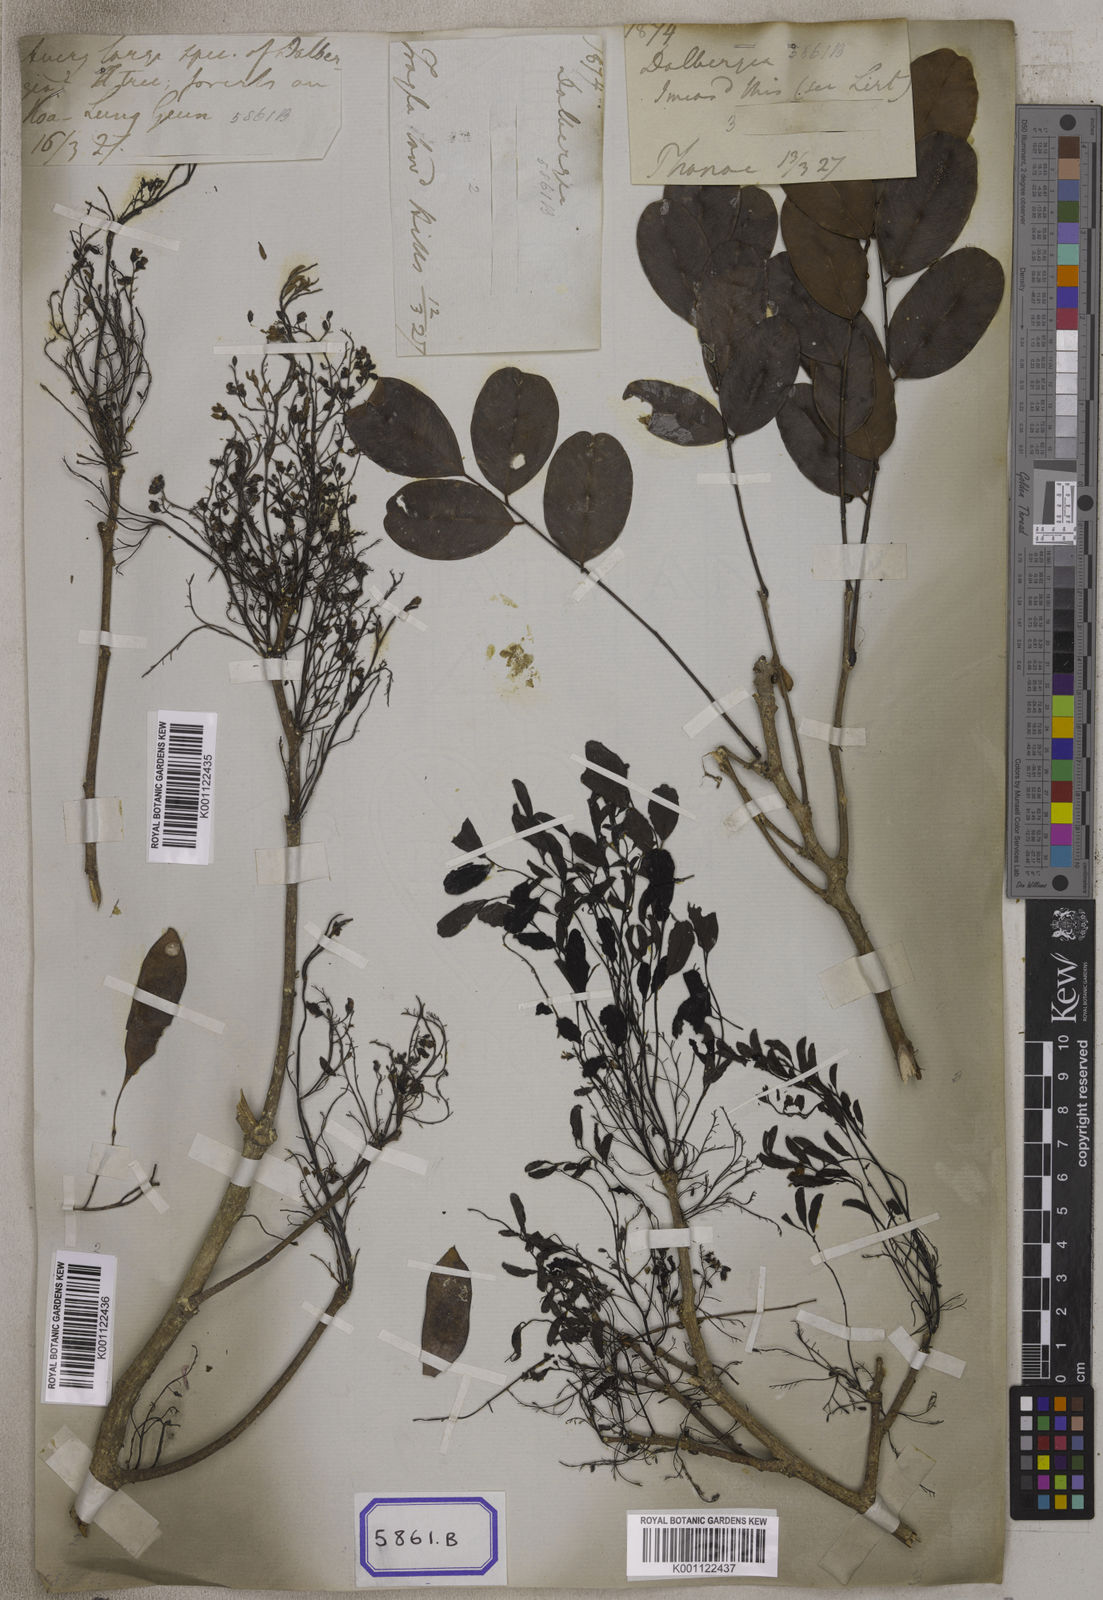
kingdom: Plantae
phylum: Tracheophyta
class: Magnoliopsida
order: Fabales
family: Fabaceae
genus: Dalbergia
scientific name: Dalbergia
